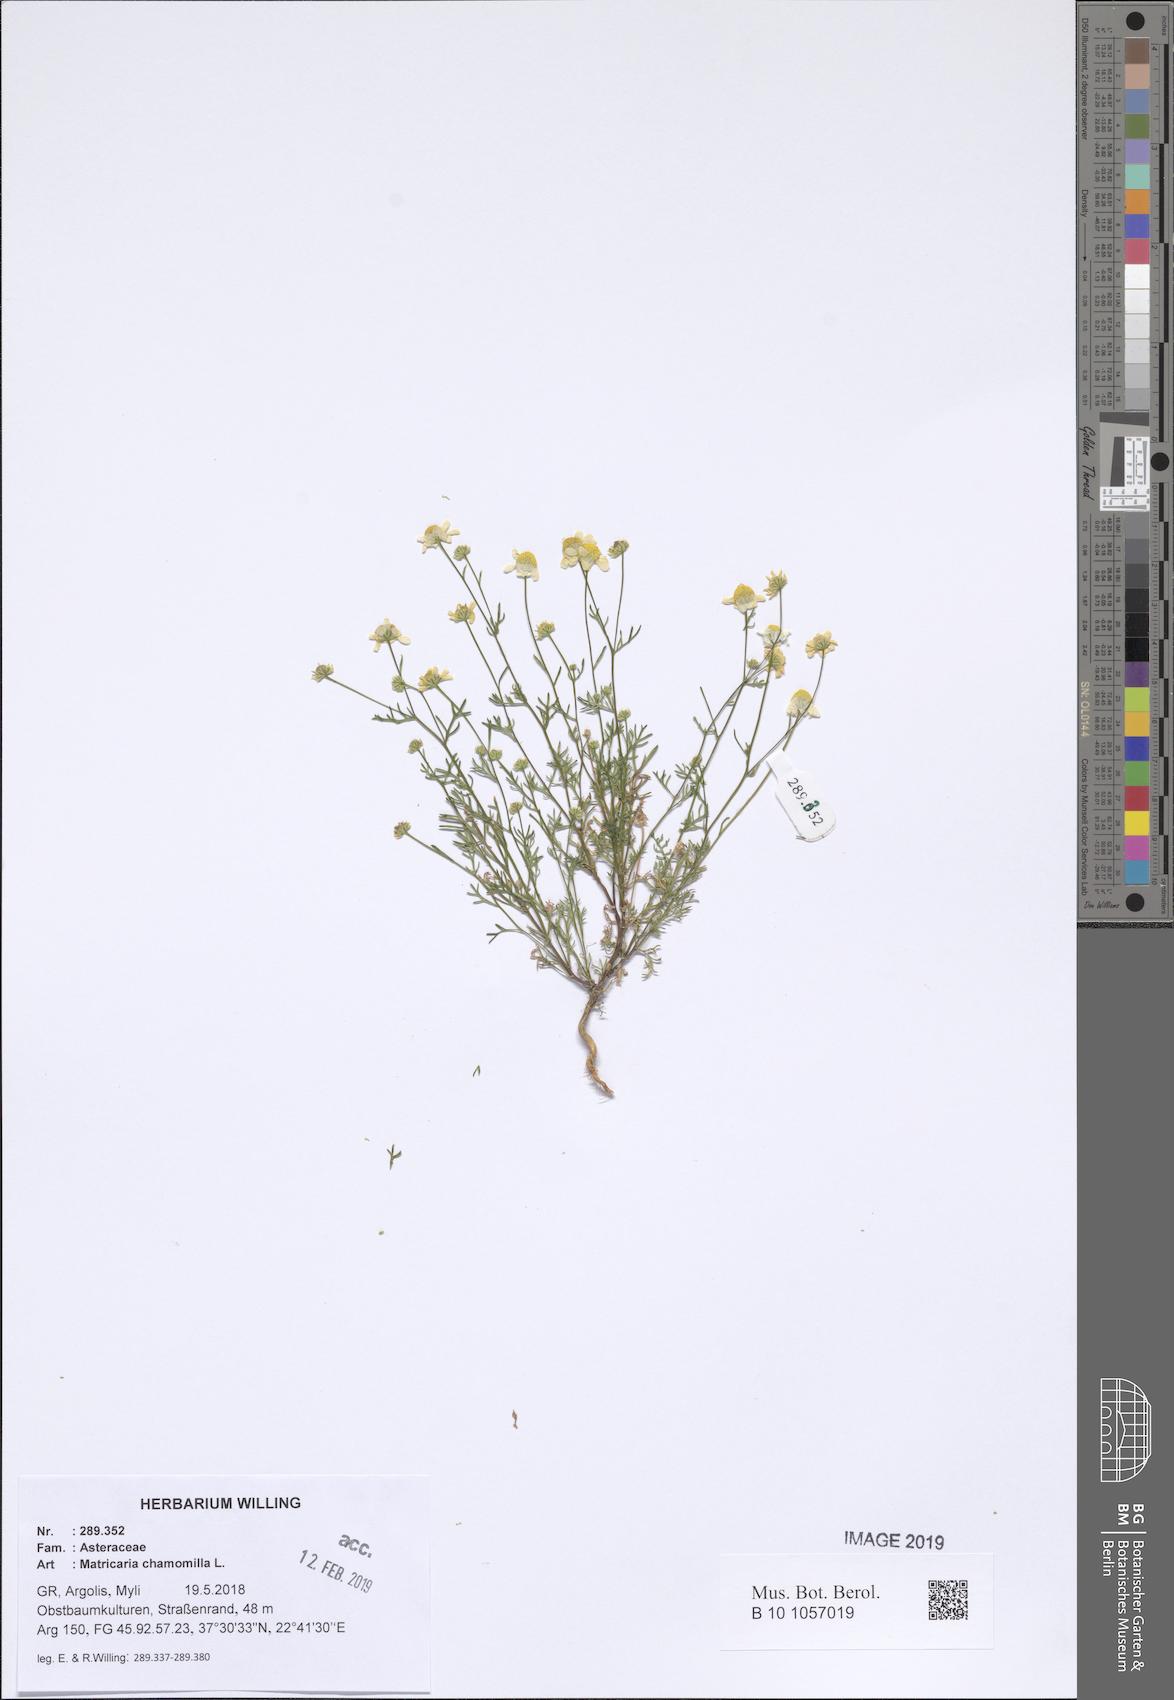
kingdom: Plantae
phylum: Tracheophyta
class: Magnoliopsida
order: Asterales
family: Asteraceae
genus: Matricaria
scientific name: Matricaria chamomilla
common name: Scented mayweed
